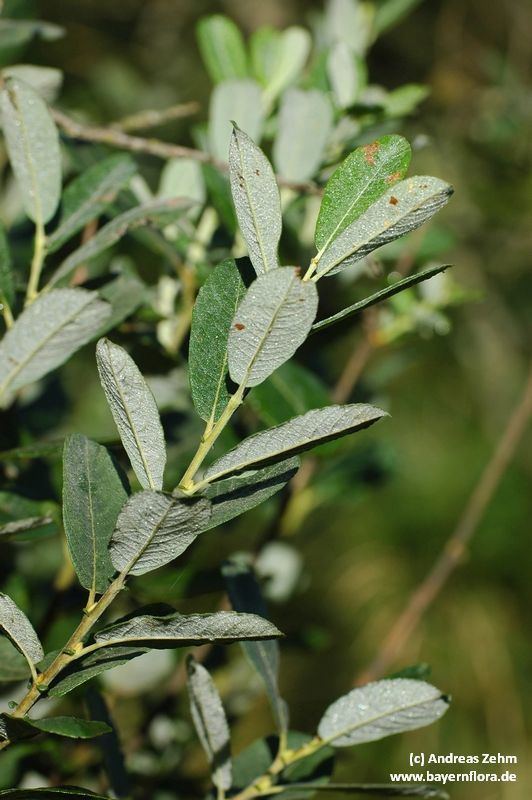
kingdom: Plantae
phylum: Tracheophyta
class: Magnoliopsida
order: Malpighiales
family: Salicaceae
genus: Salix
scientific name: Salix cinerea
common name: Common sallow
